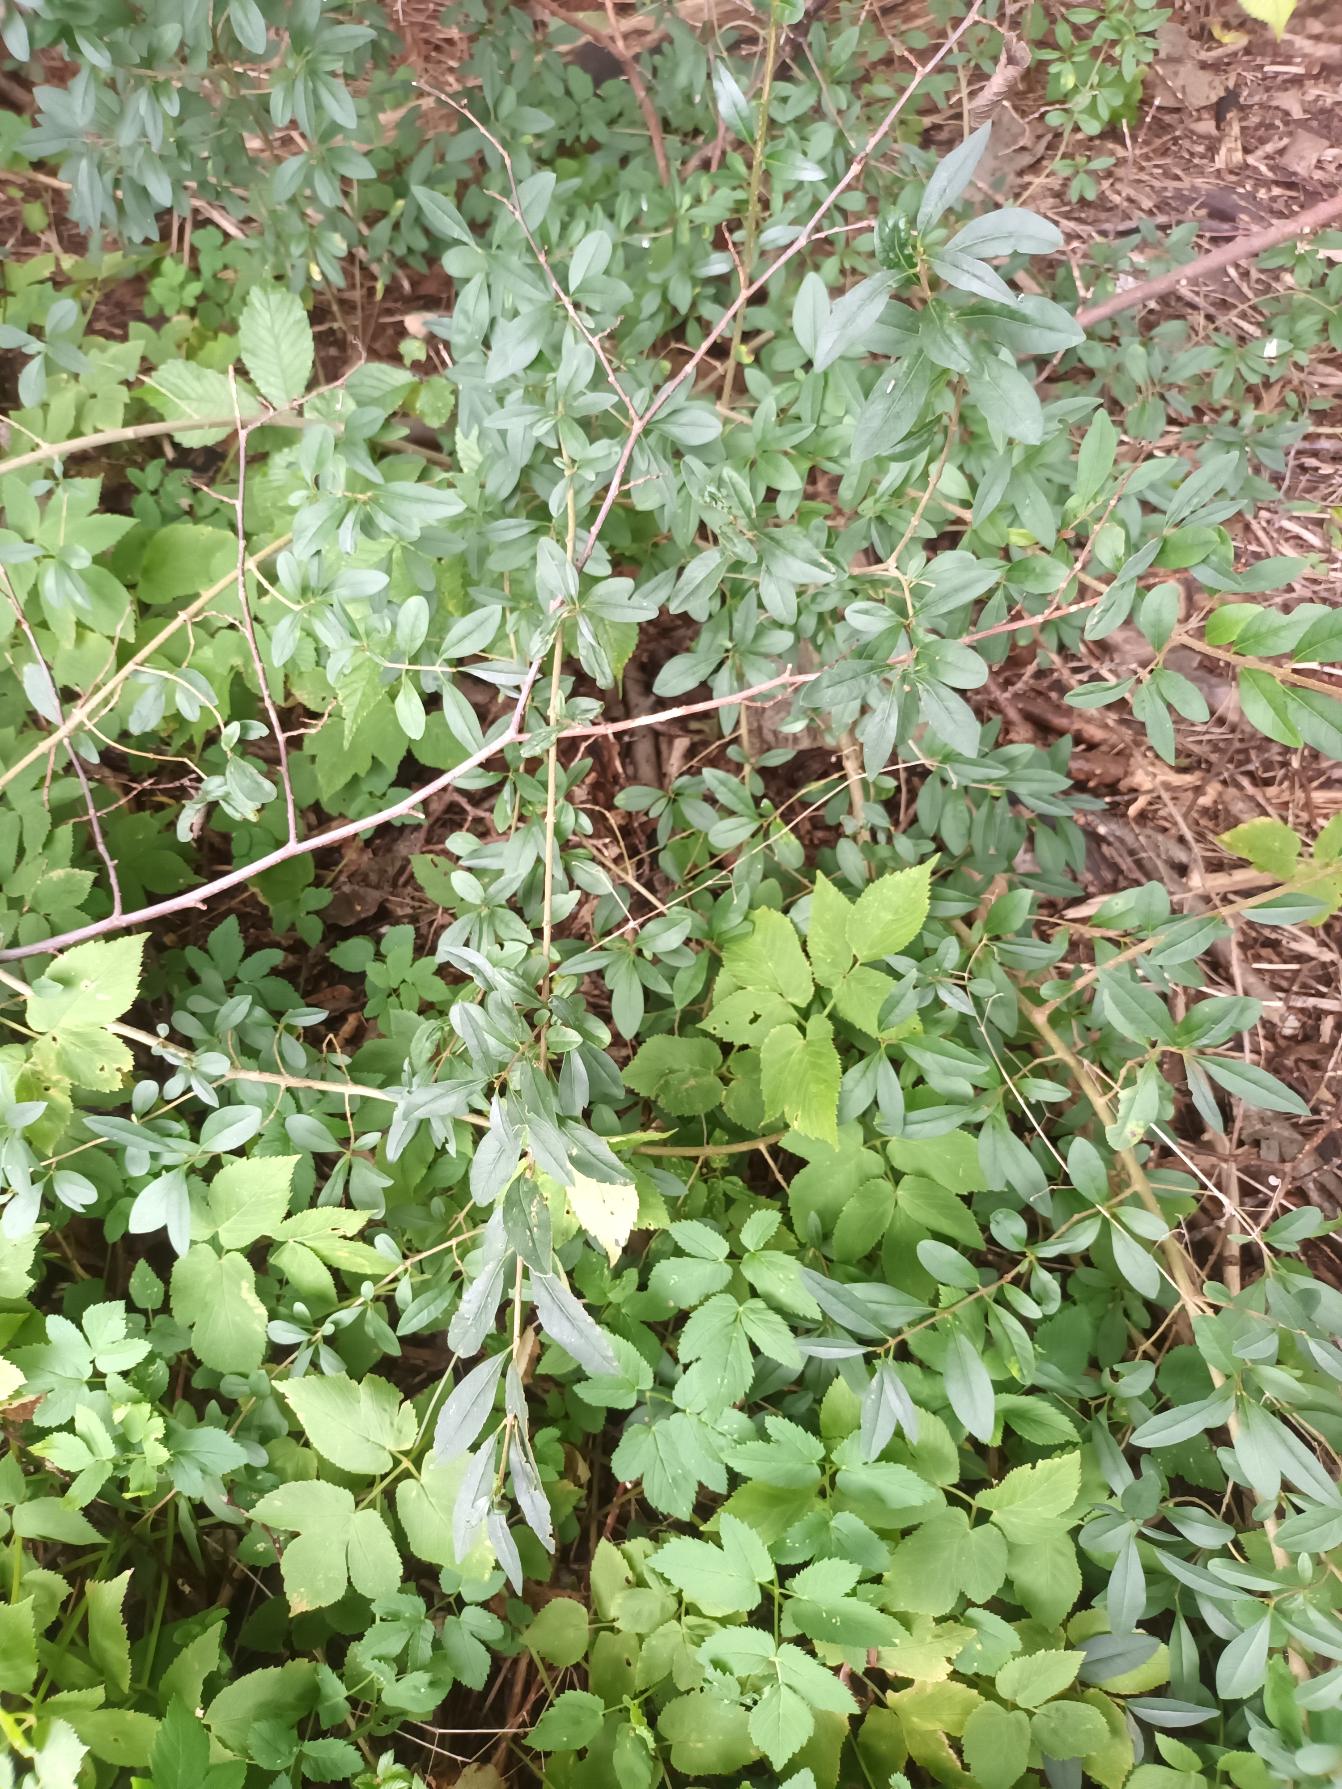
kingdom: Plantae
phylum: Tracheophyta
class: Magnoliopsida
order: Lamiales
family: Oleaceae
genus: Ligustrum
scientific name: Ligustrum vulgare
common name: Liguster
